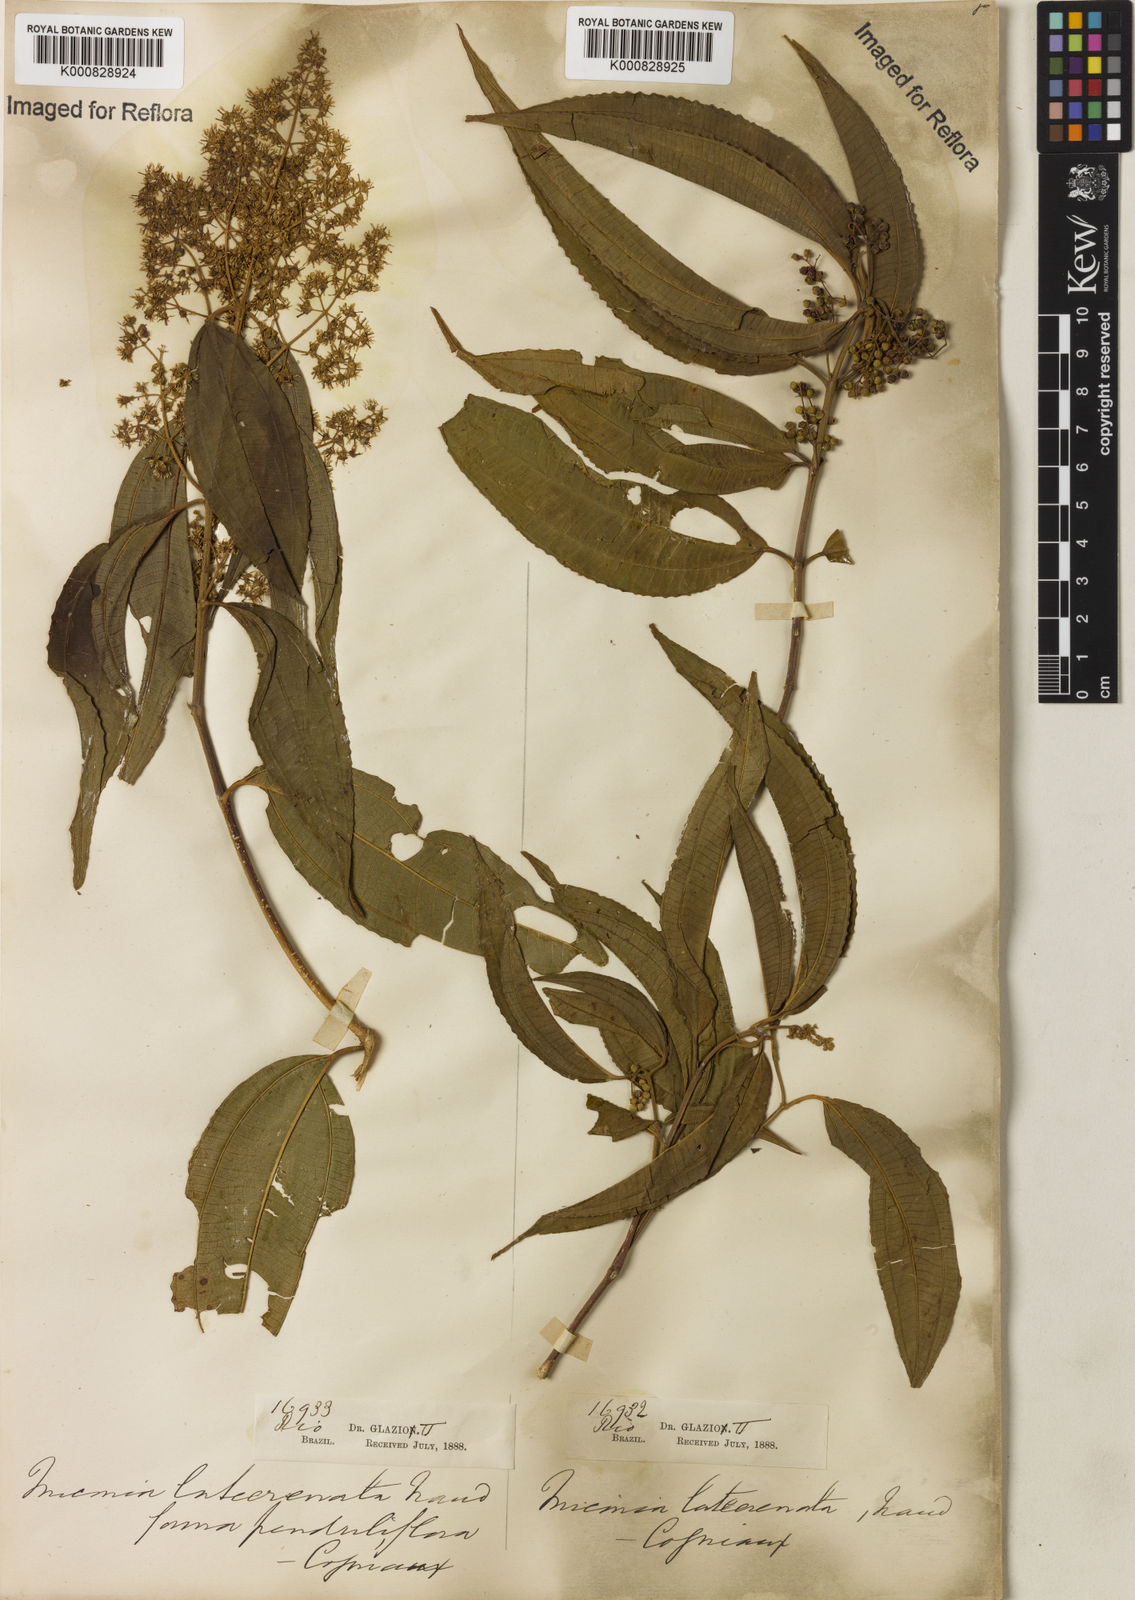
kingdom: Plantae
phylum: Tracheophyta
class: Magnoliopsida
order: Myrtales
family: Melastomataceae
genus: Miconia
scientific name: Miconia latecrenata
